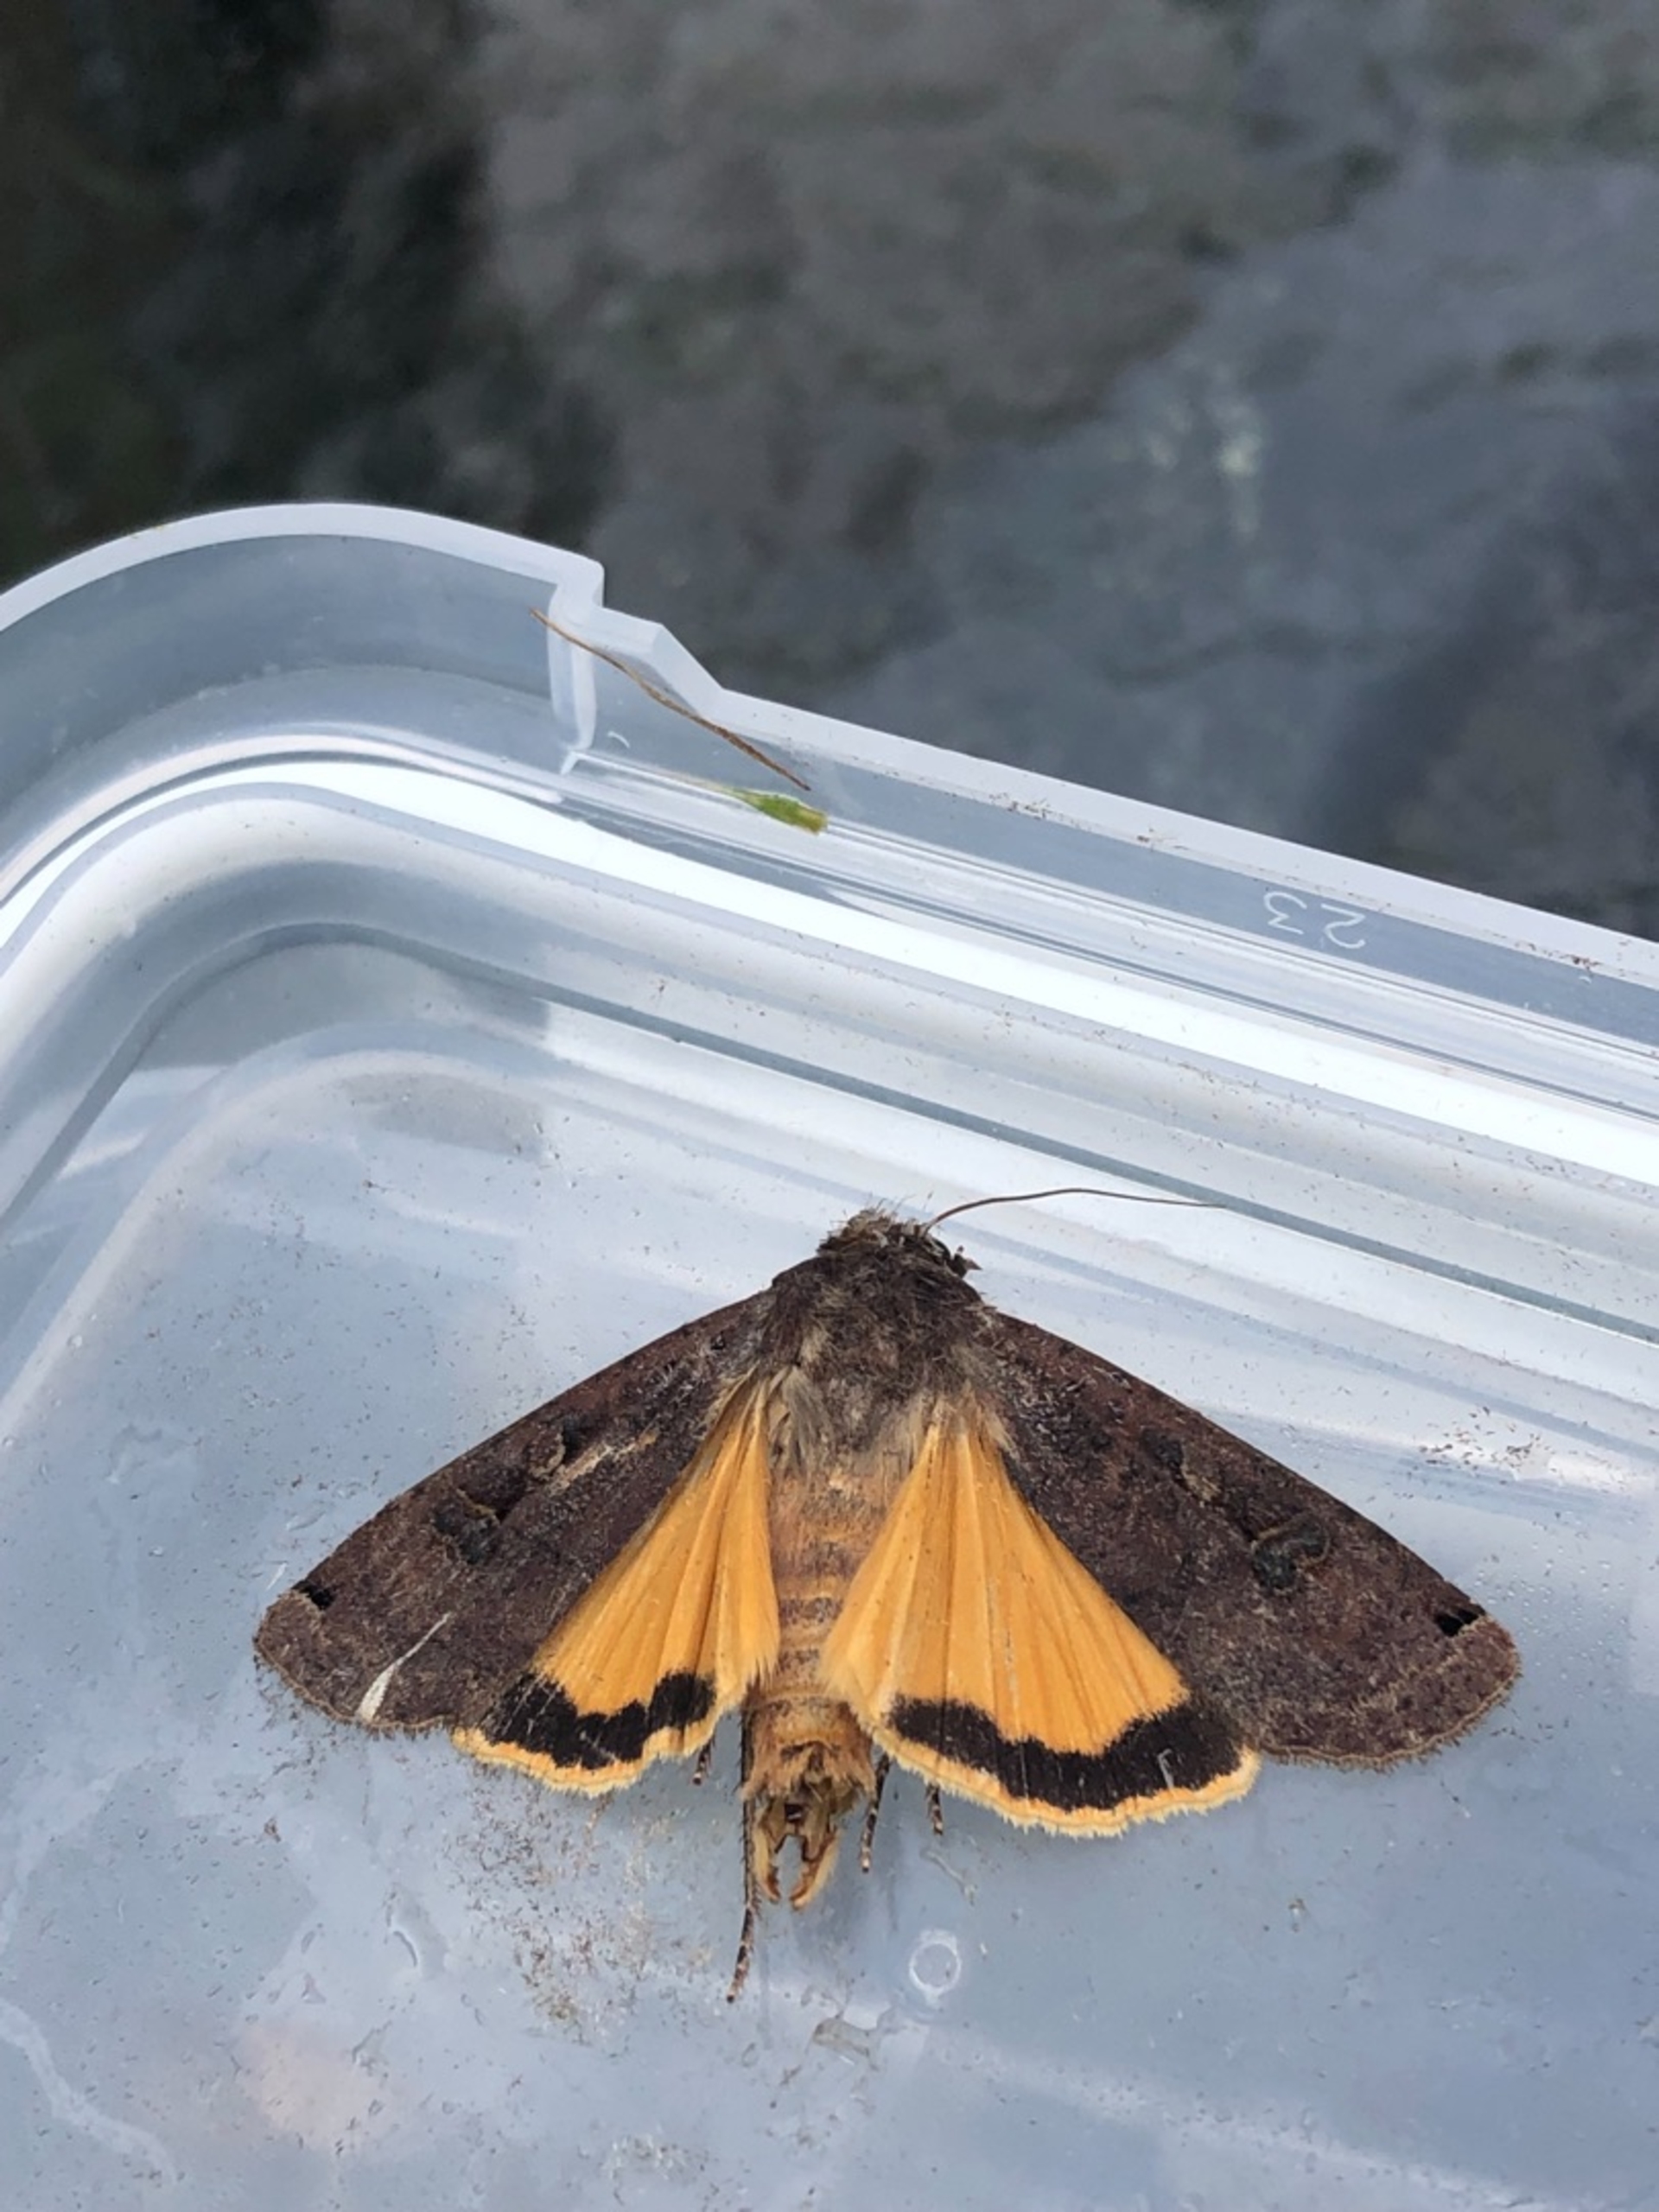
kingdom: Animalia
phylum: Arthropoda
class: Insecta
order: Lepidoptera
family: Noctuidae
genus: Noctua
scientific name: Noctua pronuba
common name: Stor smutugle
